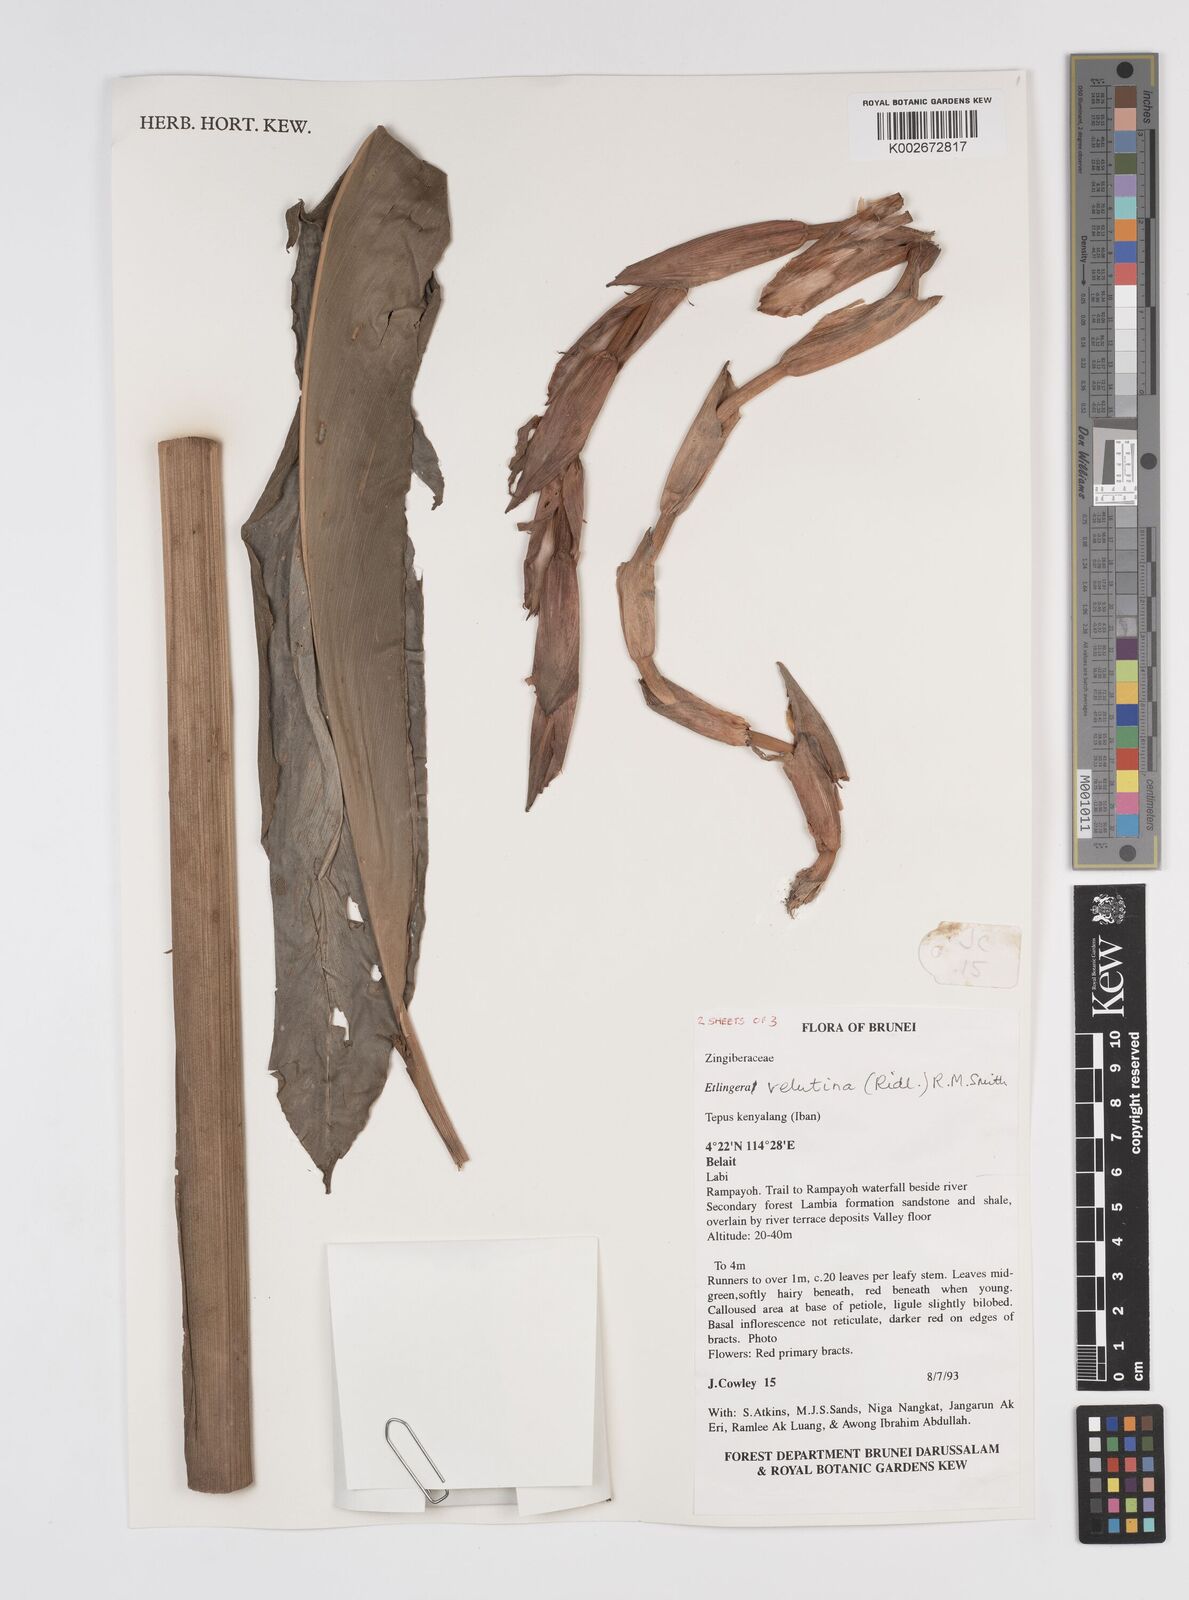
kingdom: Plantae
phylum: Tracheophyta
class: Liliopsida
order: Zingiberales
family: Zingiberaceae
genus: Etlingera
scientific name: Etlingera velutina
